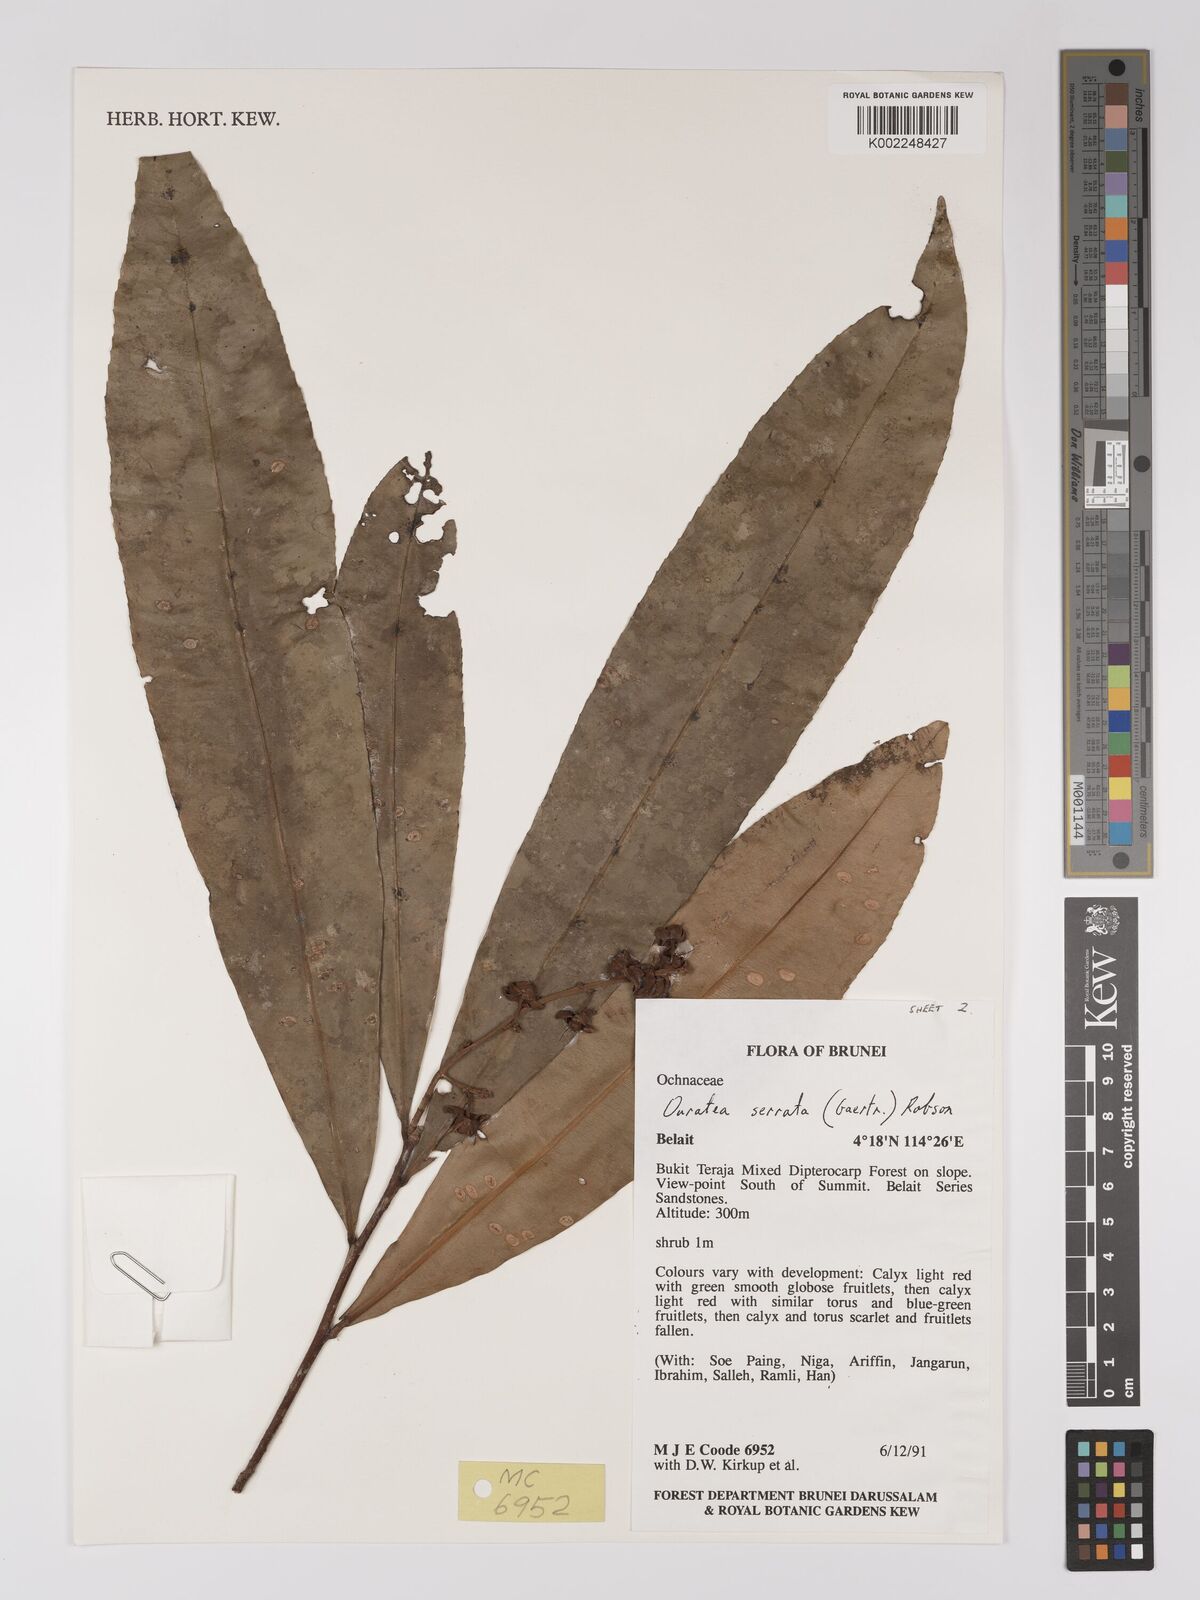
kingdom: Plantae
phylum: Tracheophyta
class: Magnoliopsida
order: Malpighiales
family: Ochnaceae
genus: Gomphia
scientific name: Gomphia serrata
